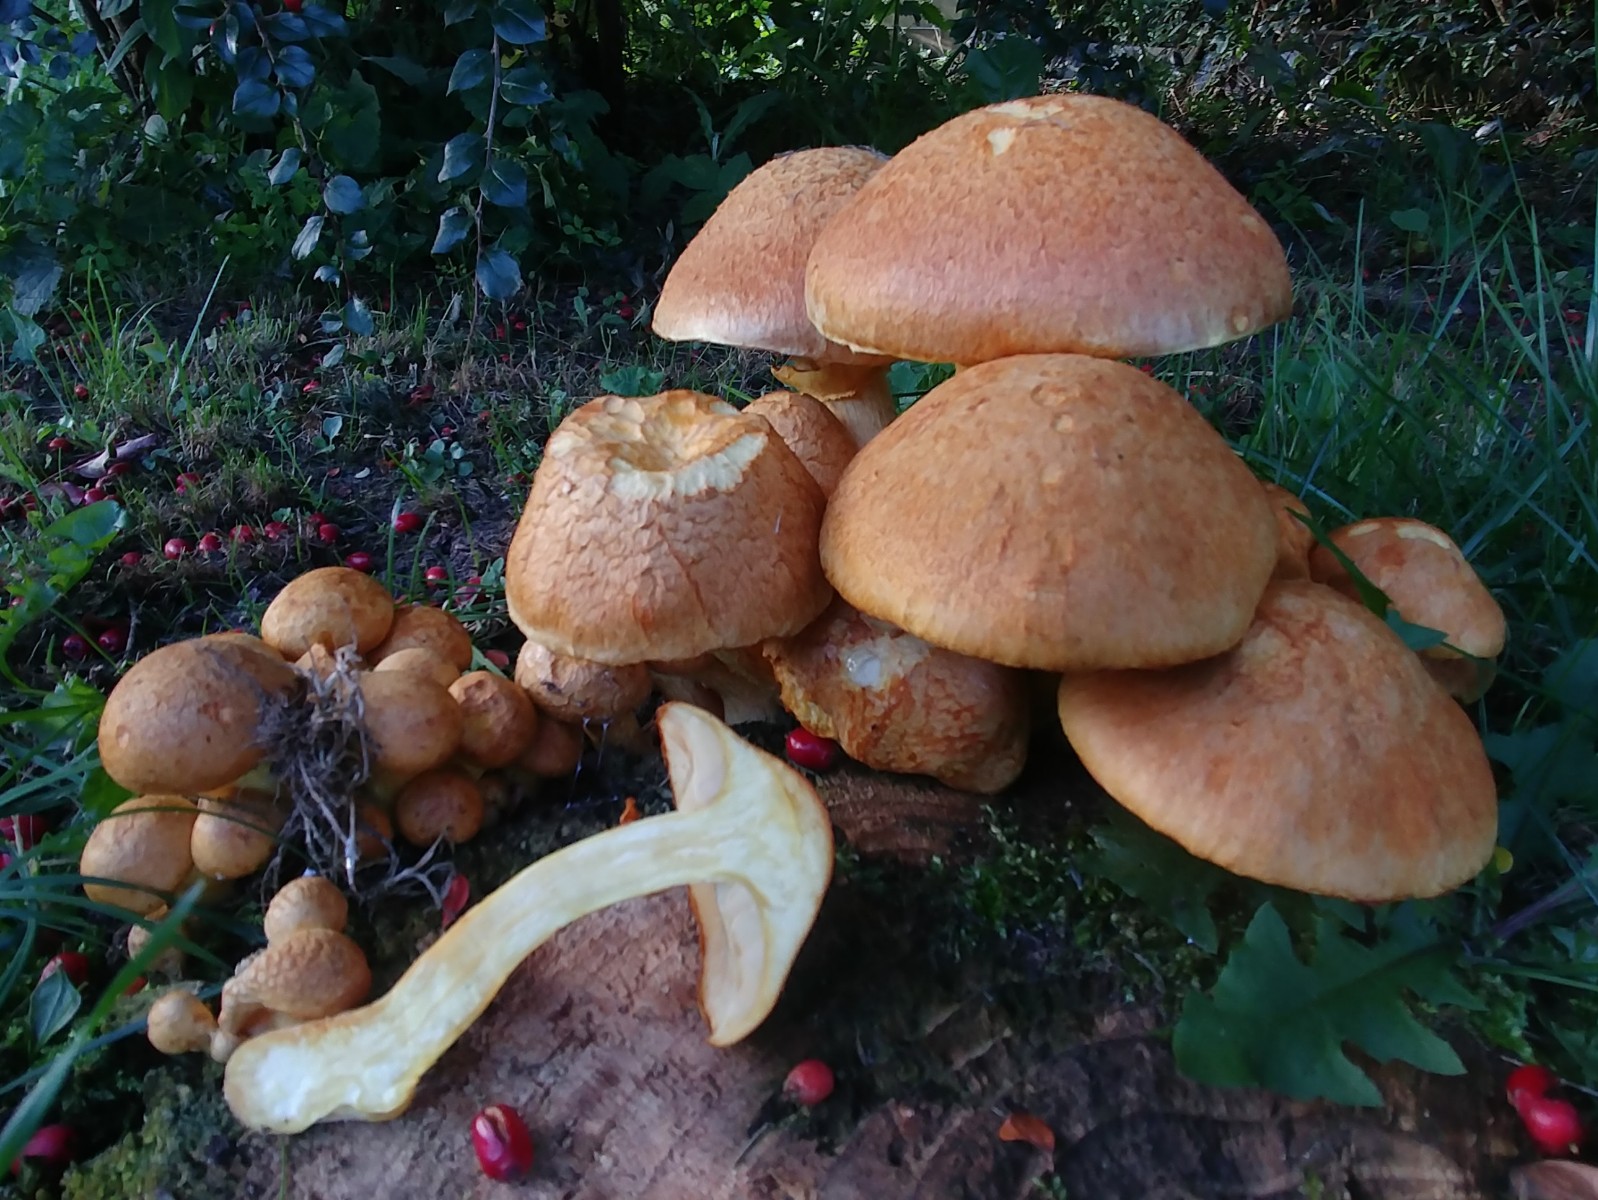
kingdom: Fungi
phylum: Basidiomycota
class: Agaricomycetes
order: Agaricales
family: Hymenogastraceae
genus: Gymnopilus
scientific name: Gymnopilus spectabilis
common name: fibret flammehat
